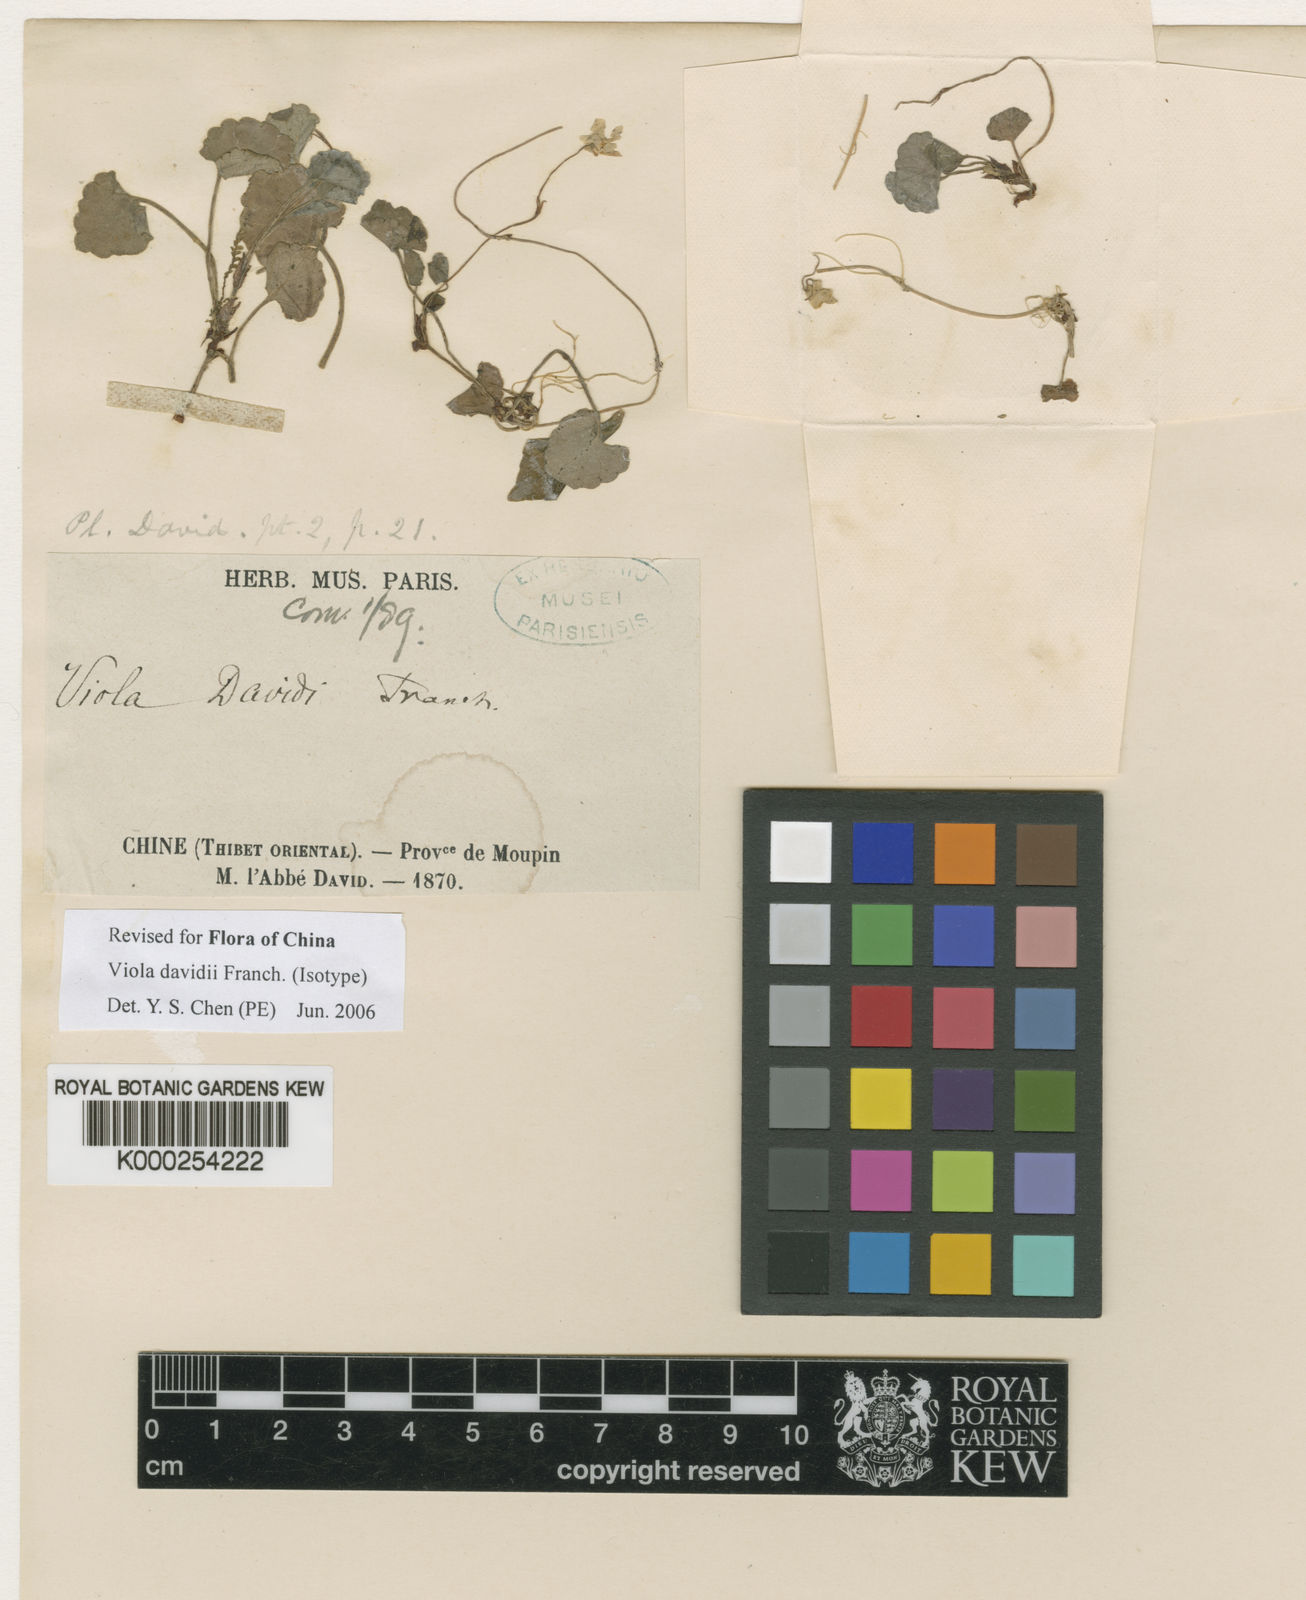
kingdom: Plantae
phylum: Tracheophyta
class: Magnoliopsida
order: Malpighiales
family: Violaceae
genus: Viola
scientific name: Viola davidii
